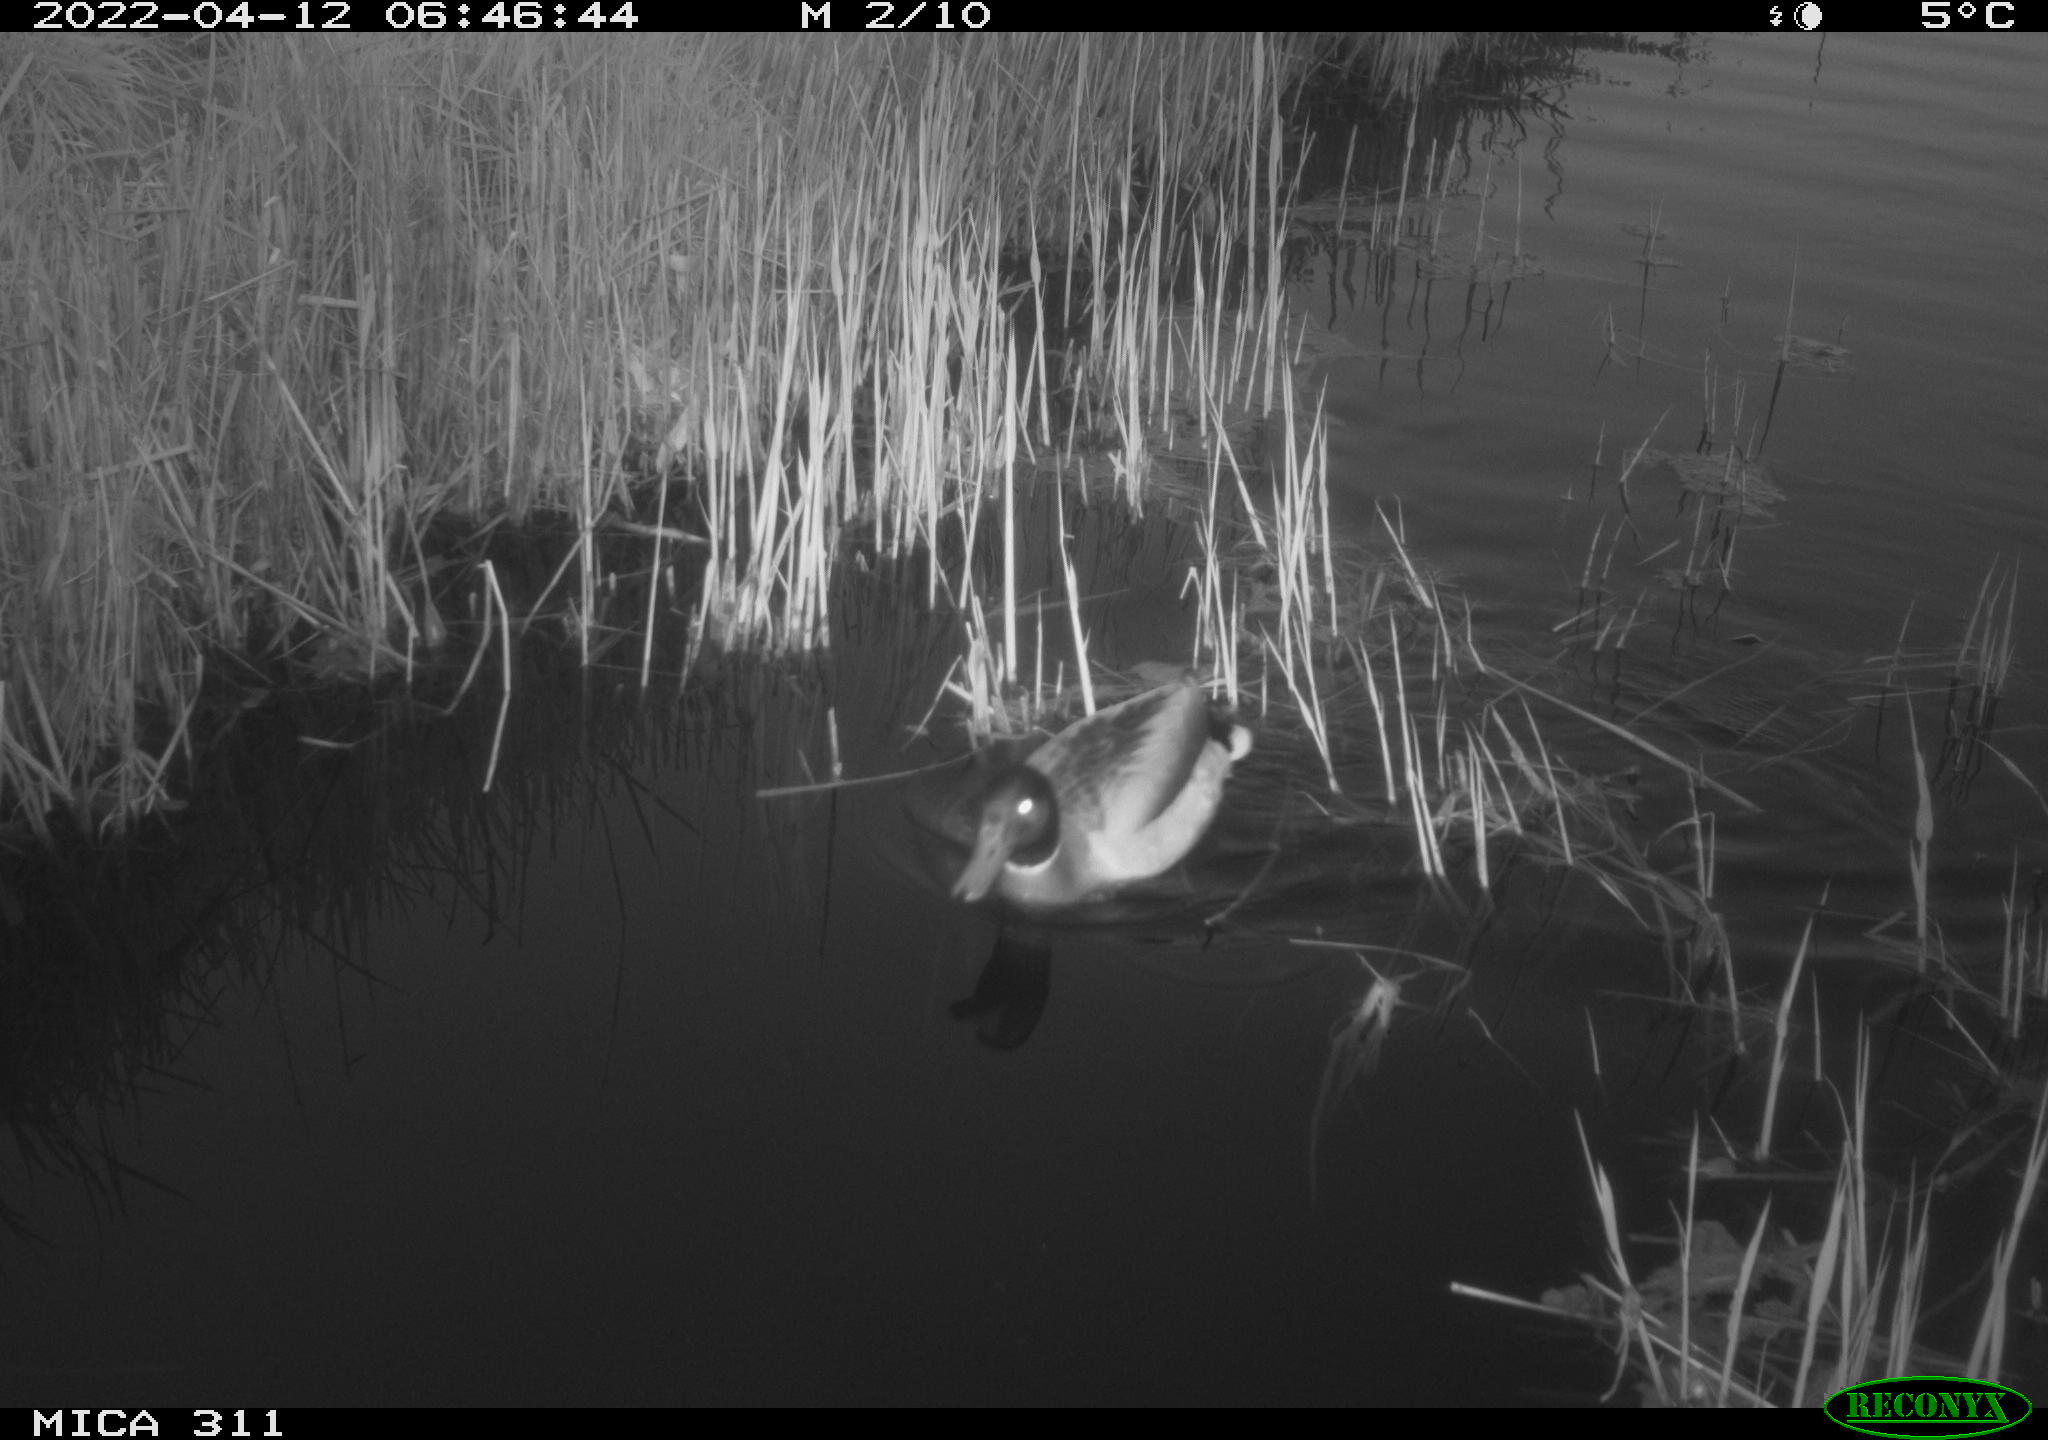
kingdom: Animalia
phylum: Chordata
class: Aves
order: Anseriformes
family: Anatidae
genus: Anas
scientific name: Anas platyrhynchos
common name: Mallard
